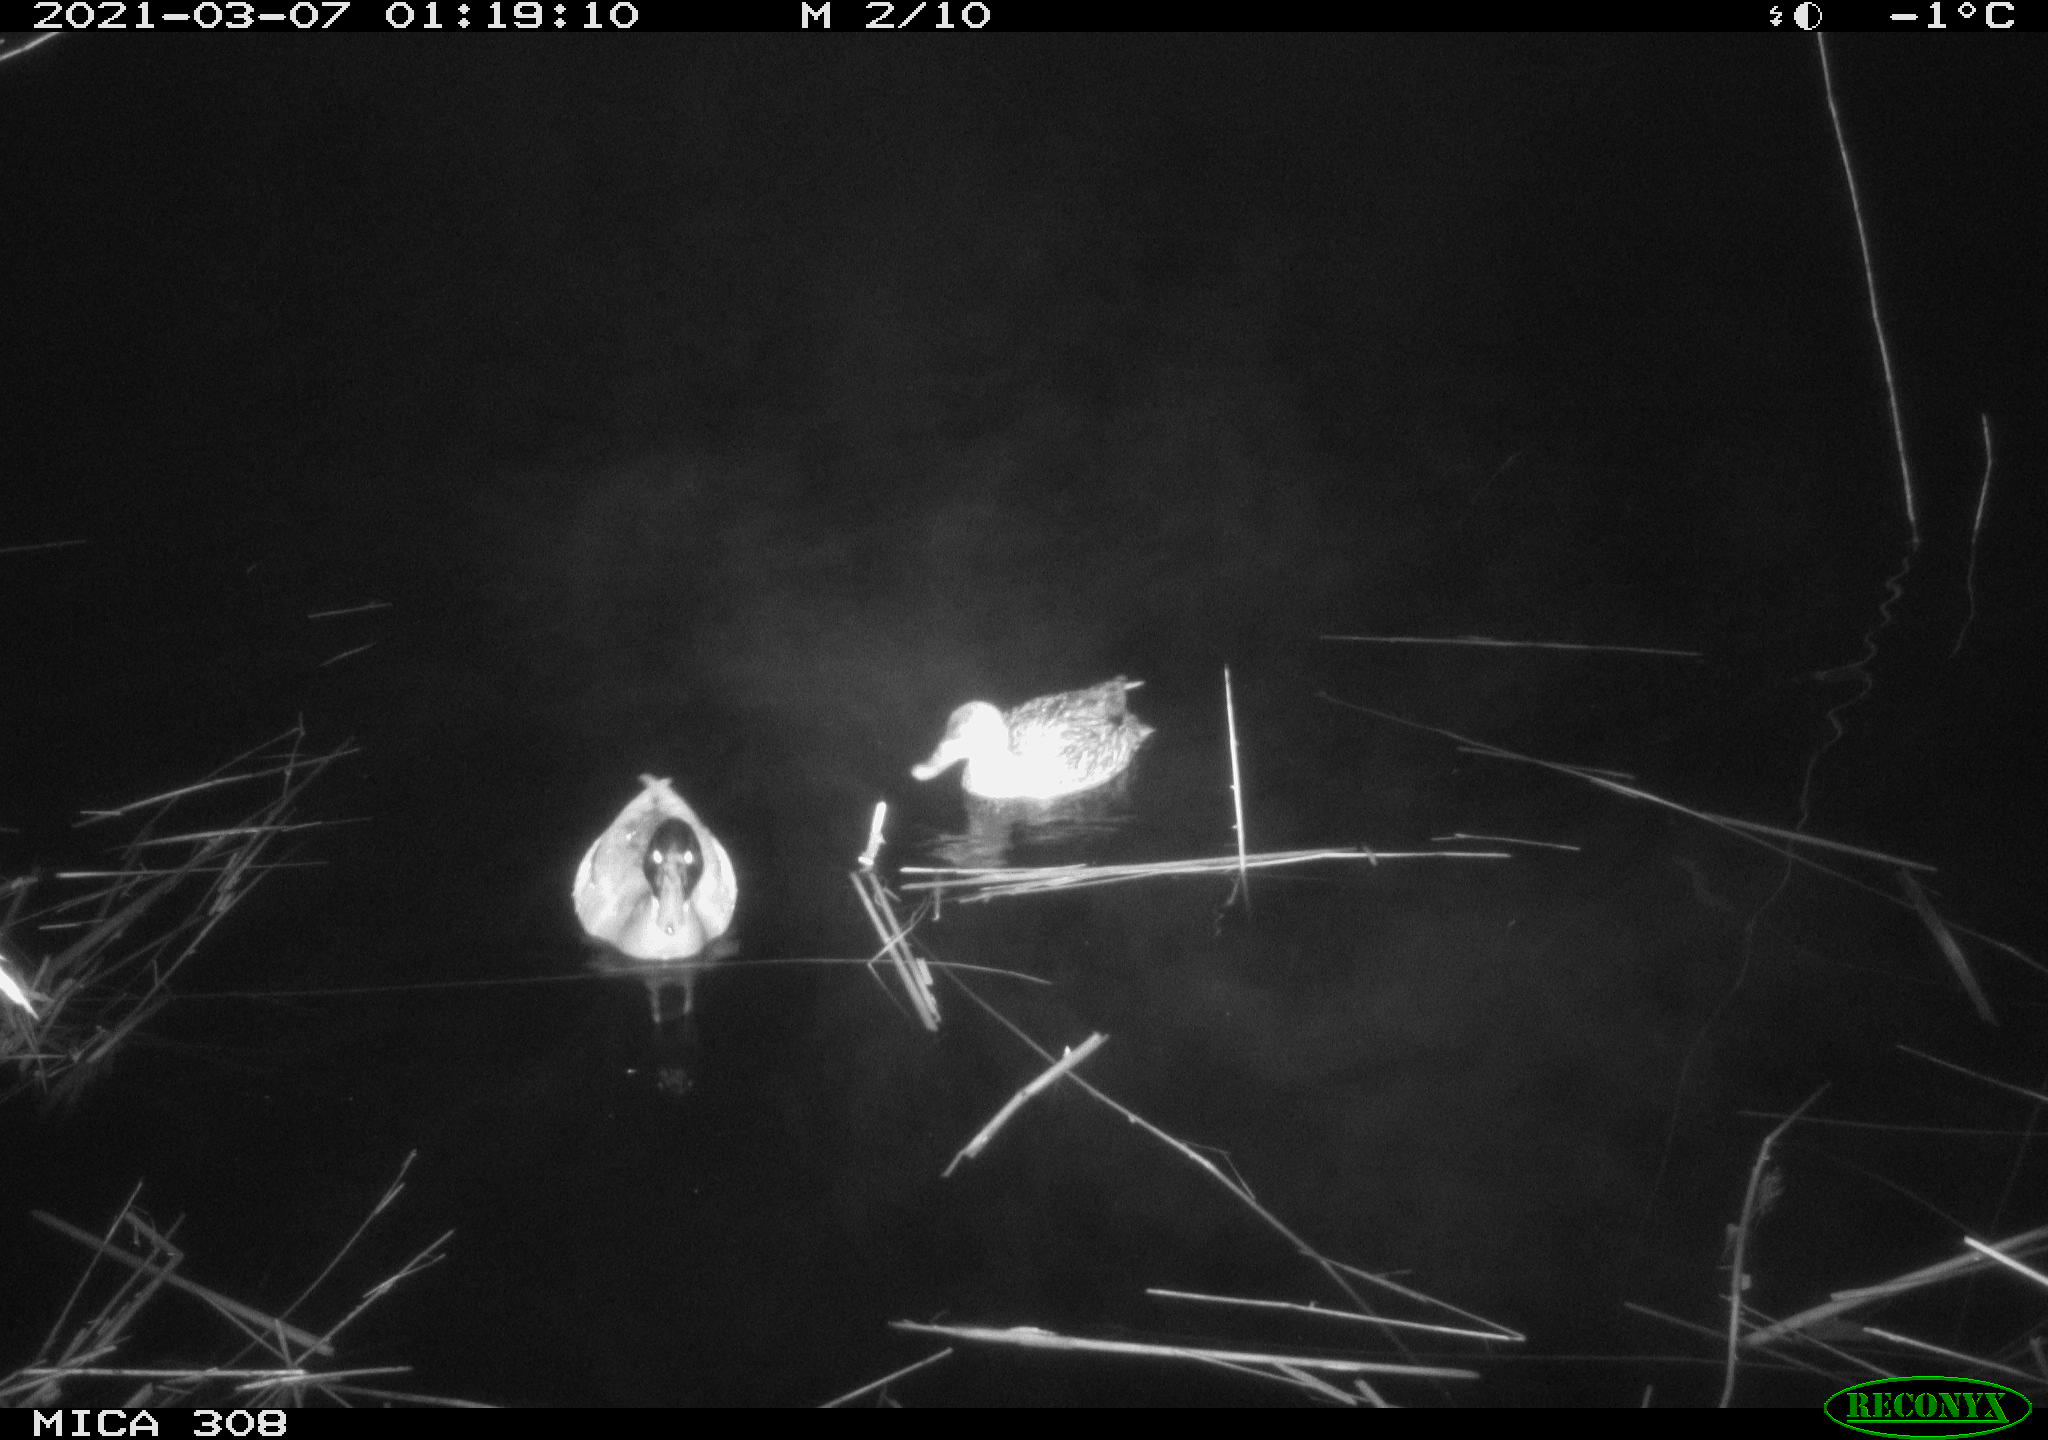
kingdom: Animalia
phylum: Chordata
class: Aves
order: Anseriformes
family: Anatidae
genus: Anas
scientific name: Anas platyrhynchos
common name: Mallard
